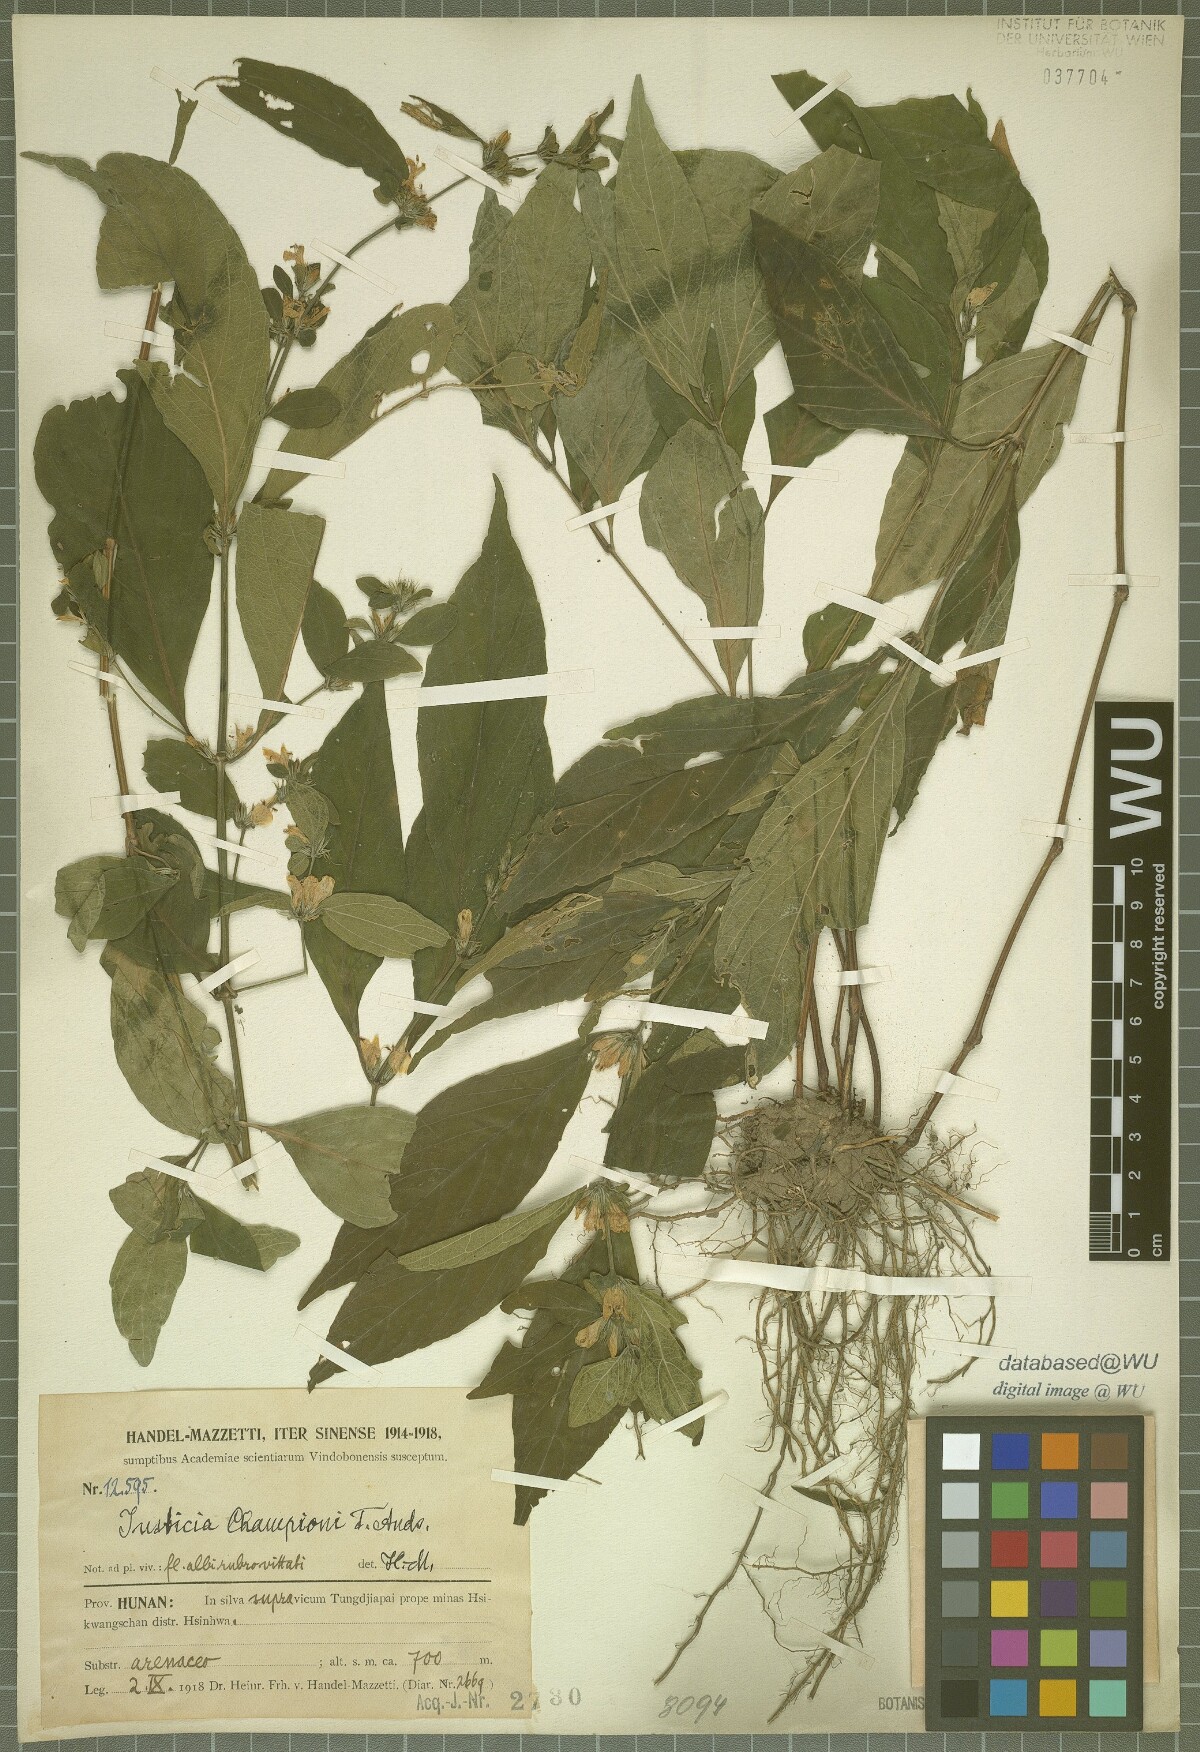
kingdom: Plantae
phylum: Tracheophyta
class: Magnoliopsida
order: Lamiales
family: Acanthaceae
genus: Justicia
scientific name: Justicia championii
